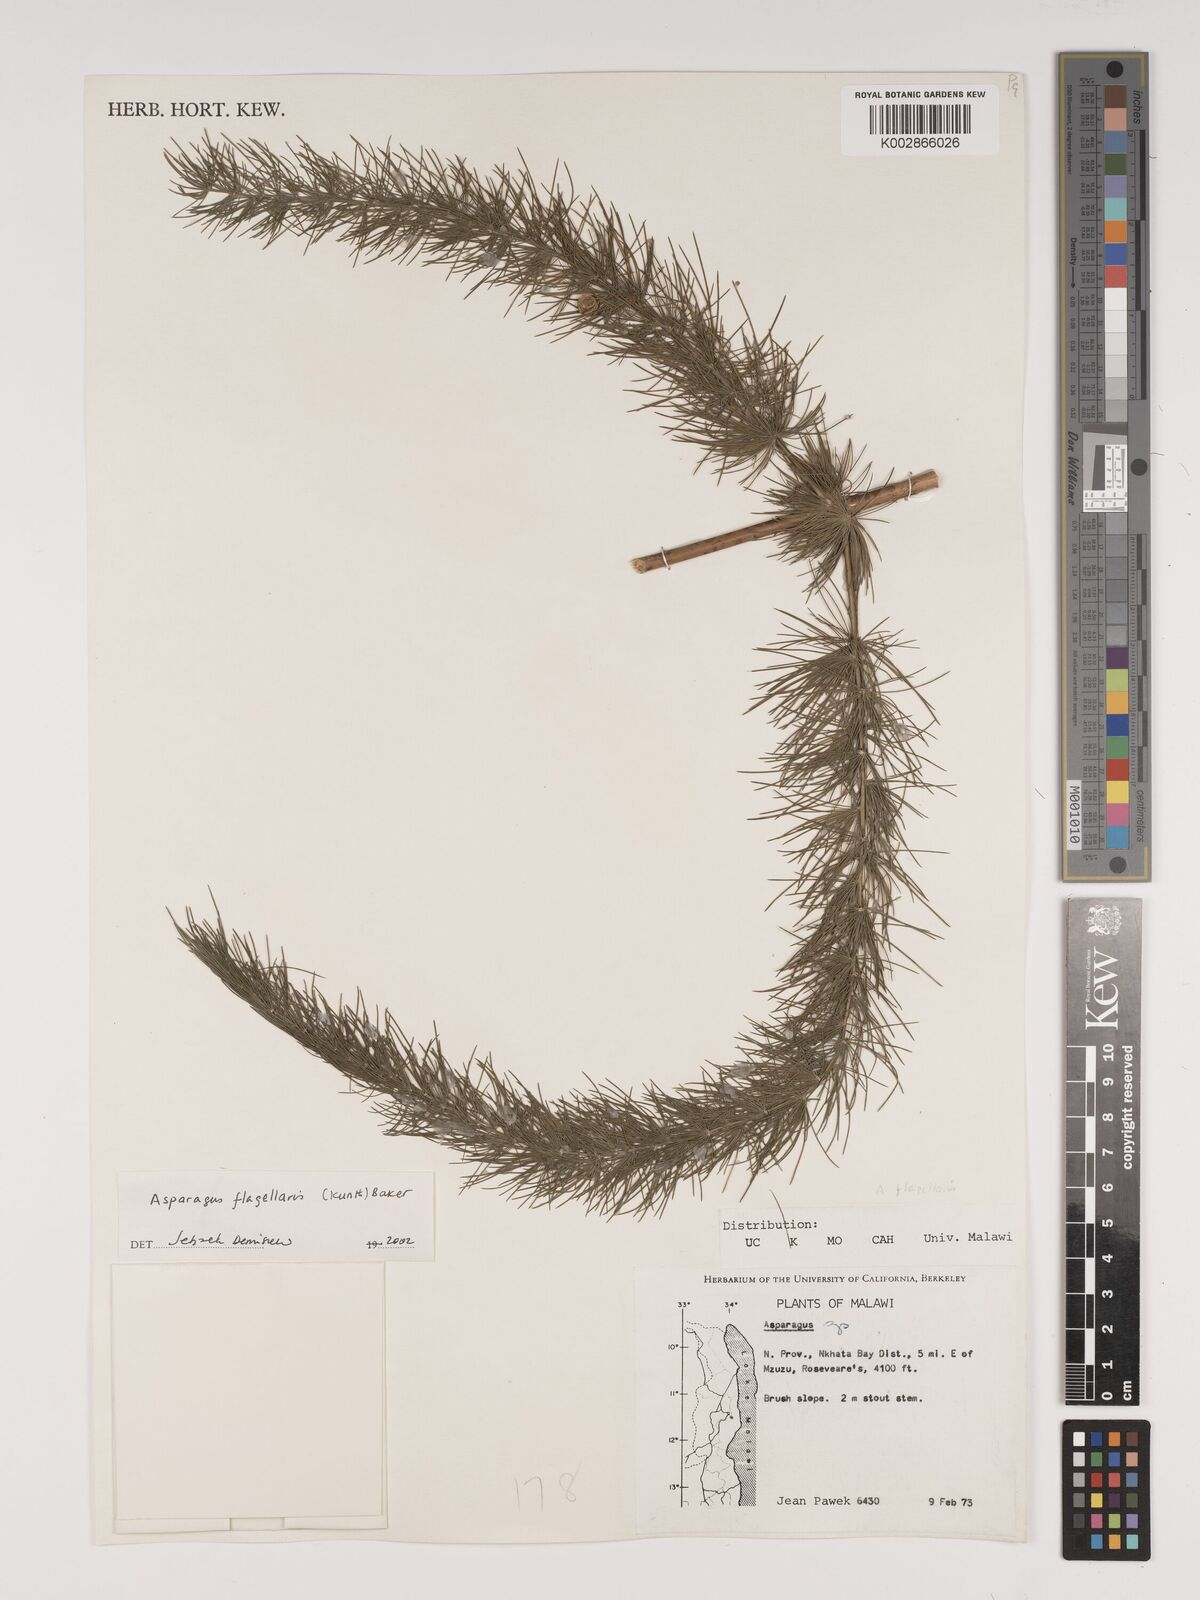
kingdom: Plantae
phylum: Tracheophyta
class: Liliopsida
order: Asparagales
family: Asparagaceae
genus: Asparagus
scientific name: Asparagus flagellaris
